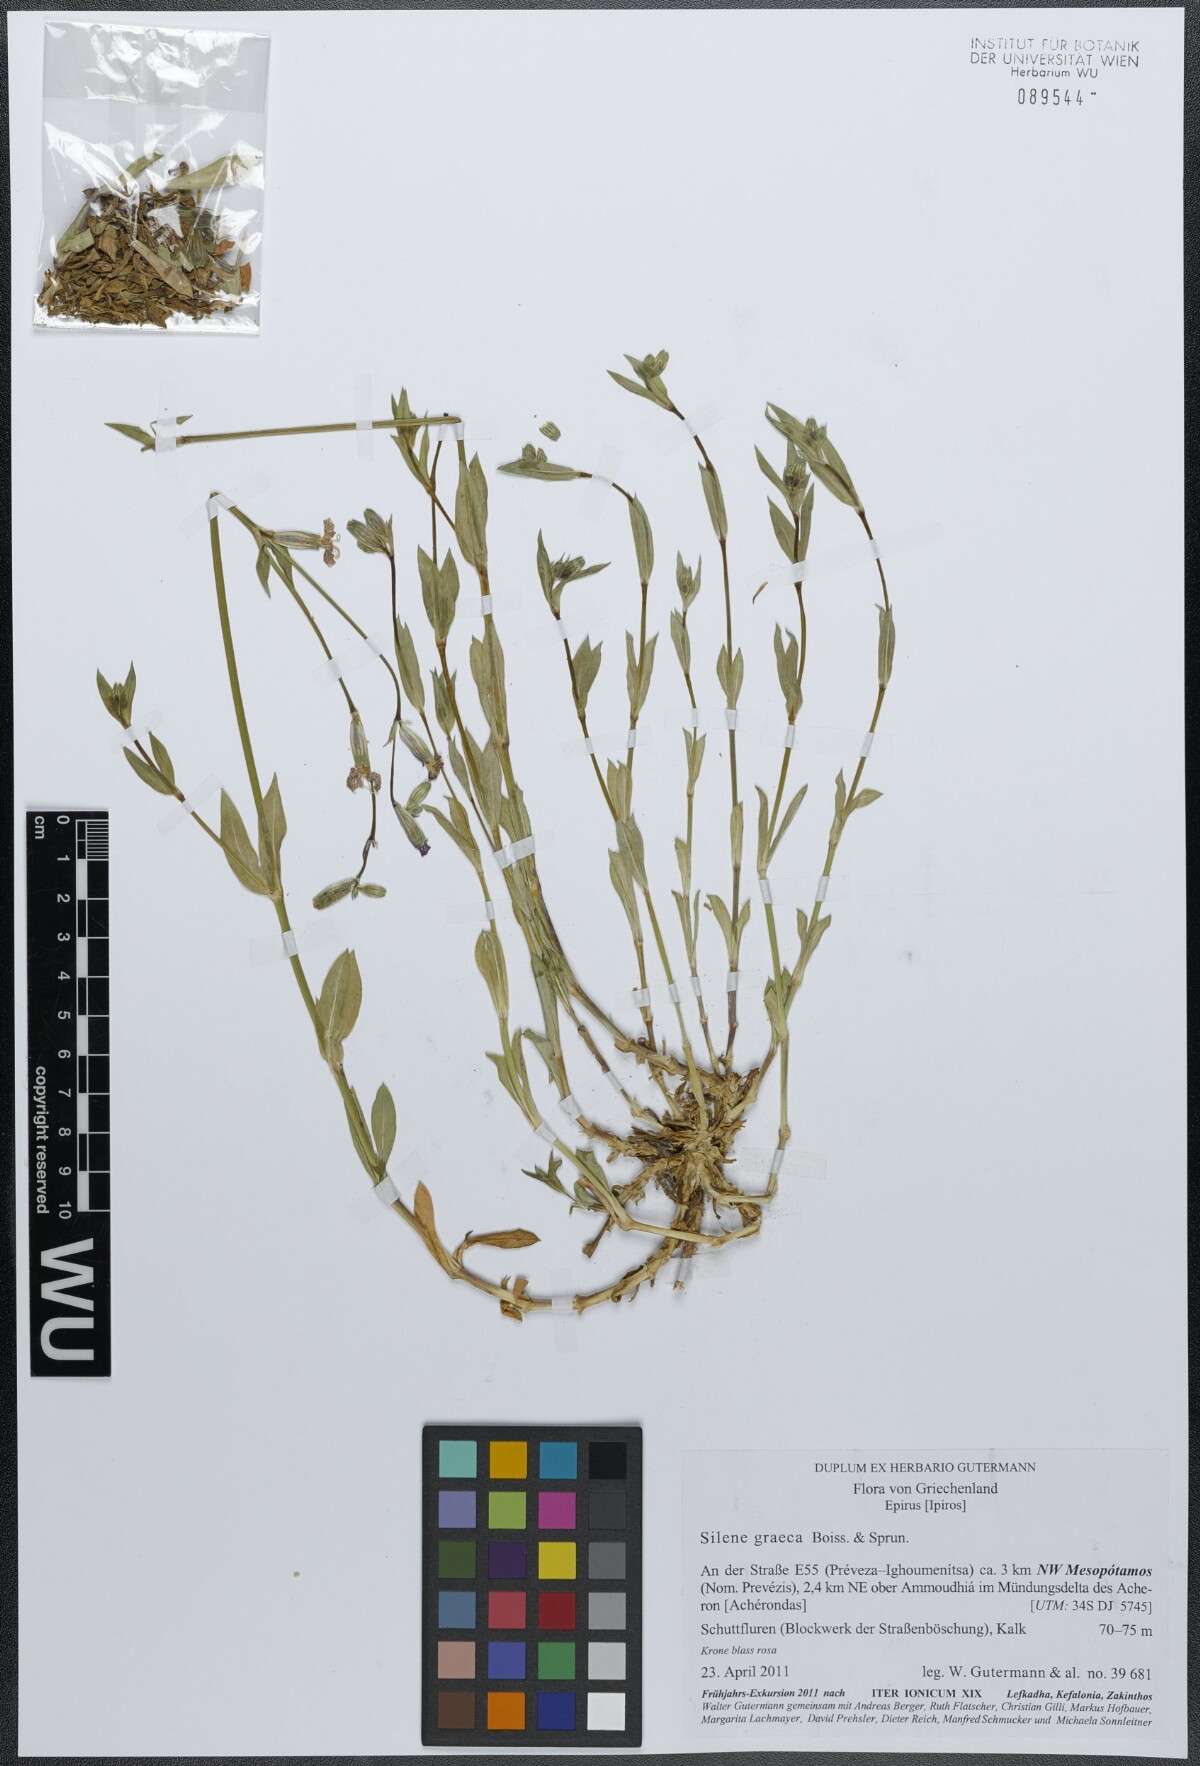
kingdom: Plantae
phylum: Tracheophyta
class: Magnoliopsida
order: Caryophyllales
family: Caryophyllaceae
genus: Silene
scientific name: Silene graeca
